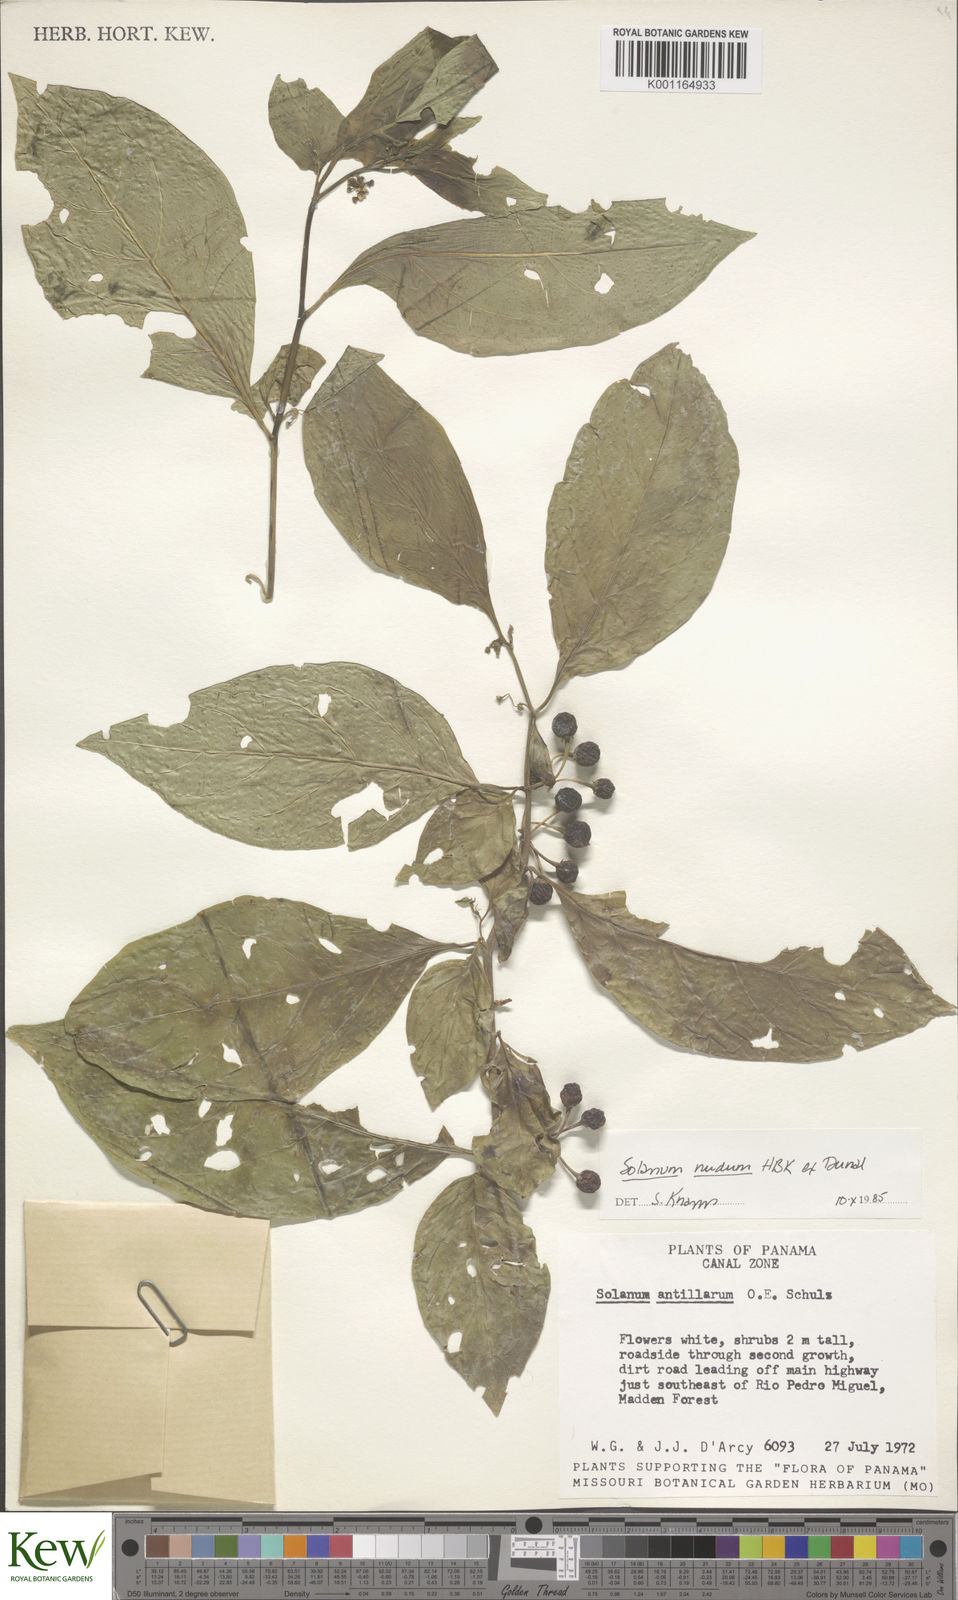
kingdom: Plantae
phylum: Tracheophyta
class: Magnoliopsida
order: Solanales
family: Solanaceae
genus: Solanum
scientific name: Solanum nudum
